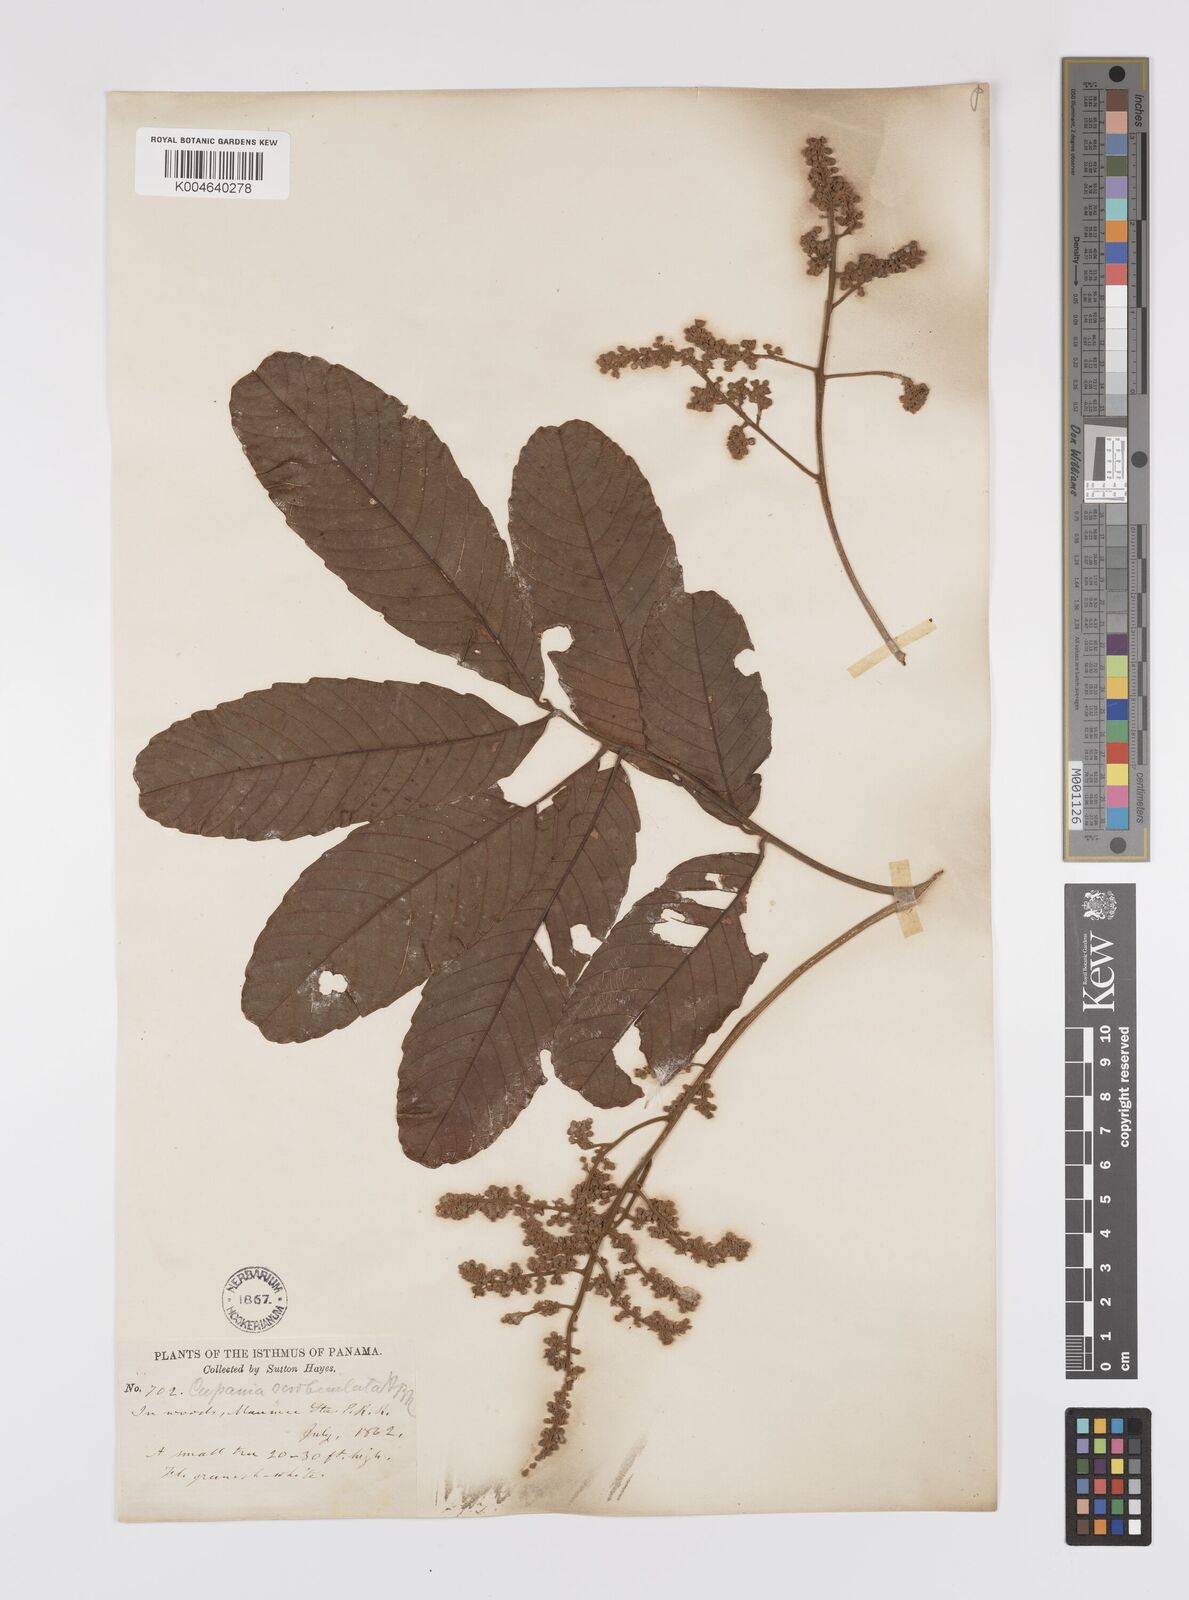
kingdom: Plantae
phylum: Tracheophyta
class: Magnoliopsida
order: Sapindales
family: Sapindaceae
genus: Cupania
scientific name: Cupania
